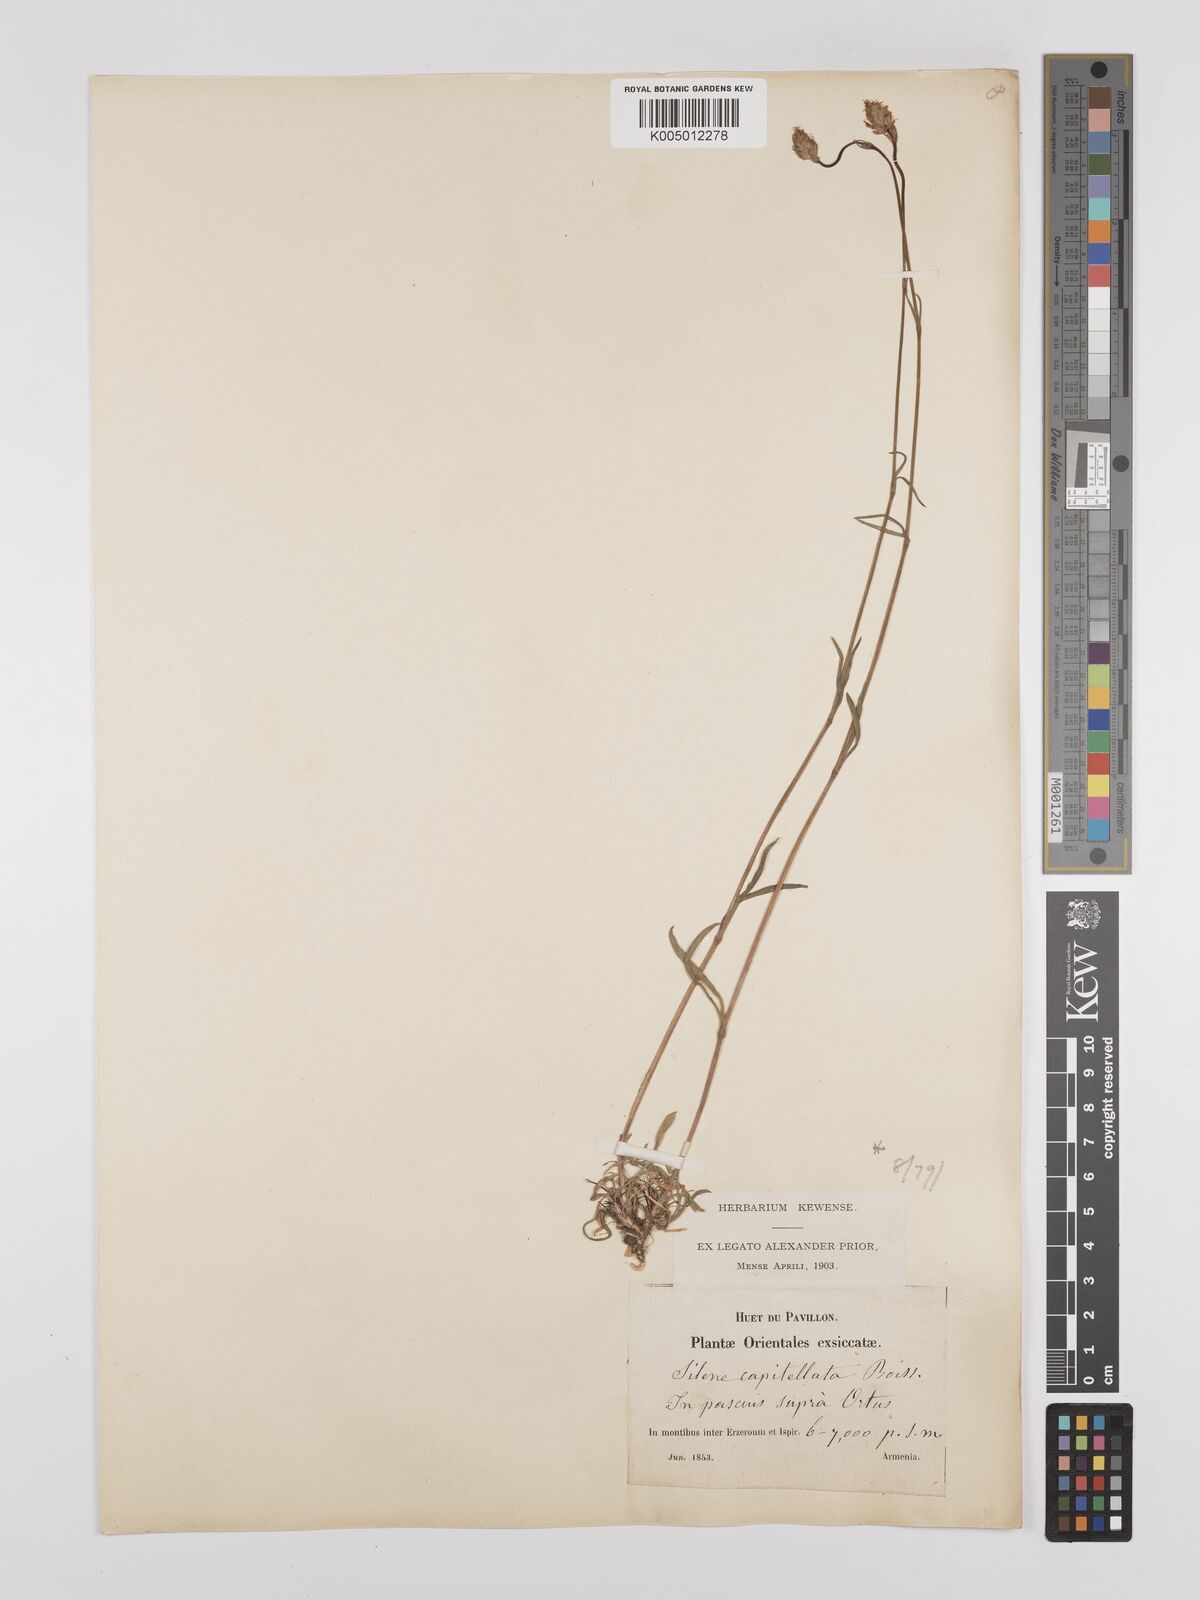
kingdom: Plantae
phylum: Tracheophyta
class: Magnoliopsida
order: Caryophyllales
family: Caryophyllaceae
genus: Silene
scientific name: Silene capitellata
